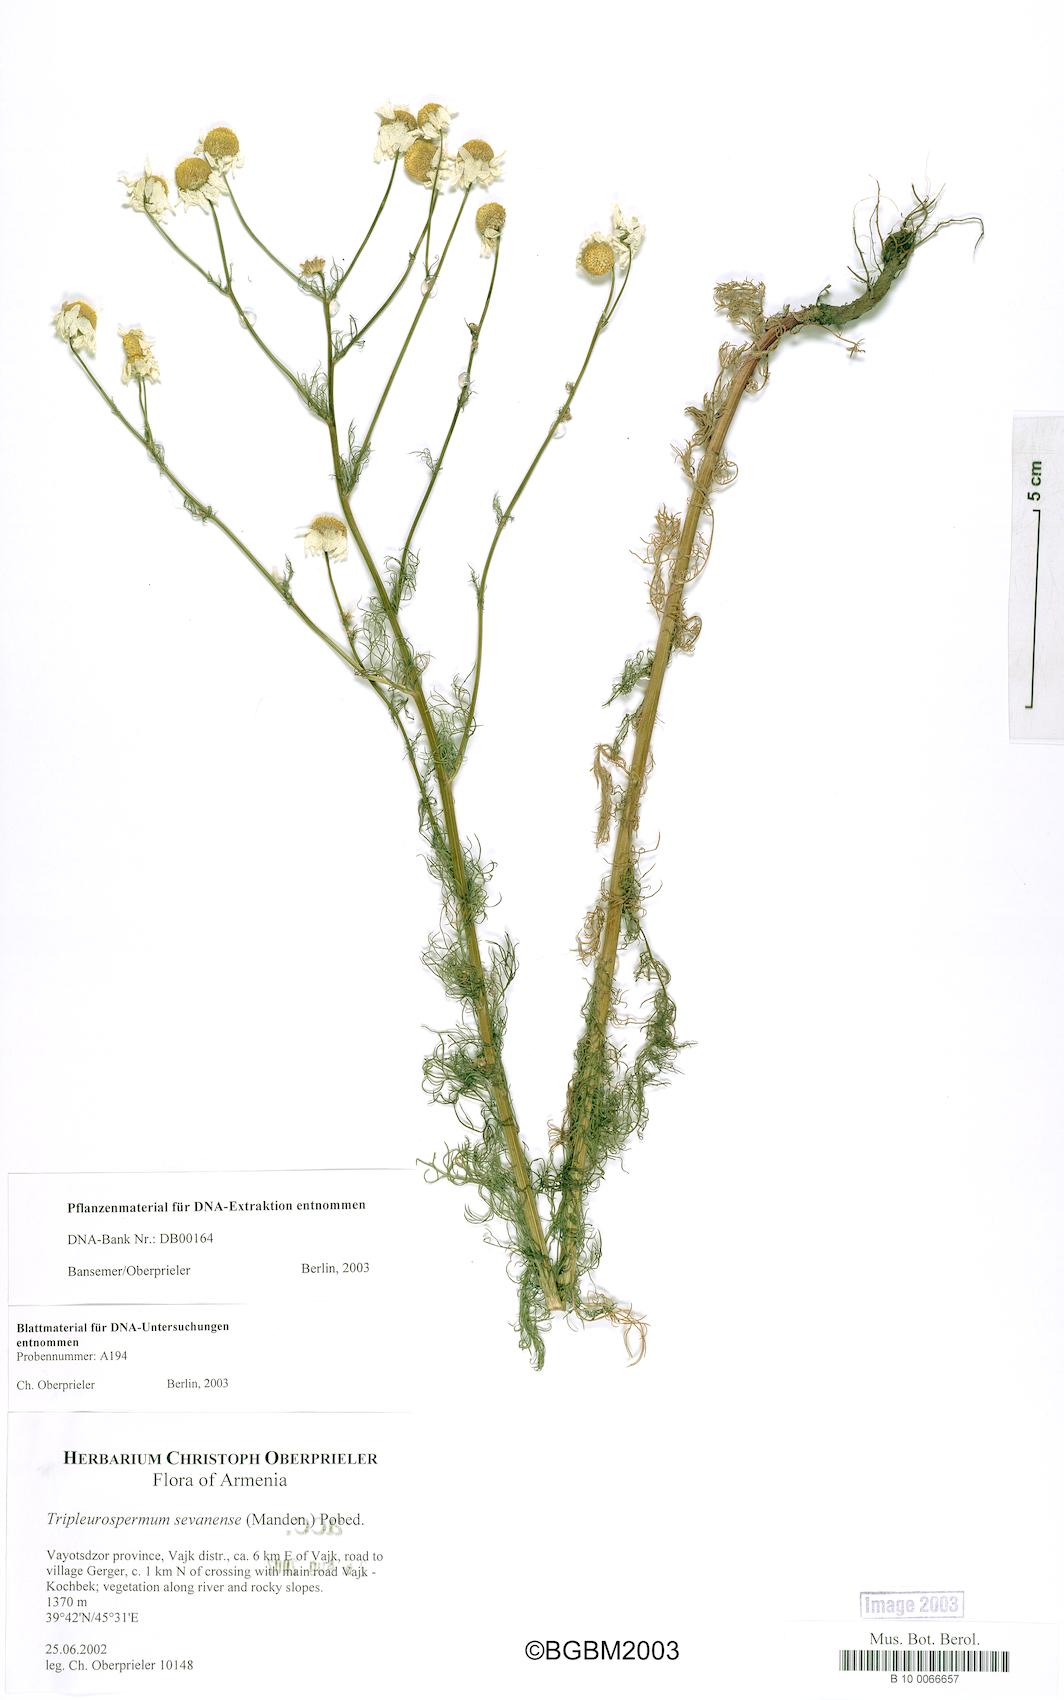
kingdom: Plantae
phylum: Tracheophyta
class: Magnoliopsida
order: Asterales
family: Asteraceae
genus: Tripleurospermum
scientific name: Tripleurospermum sevanense
